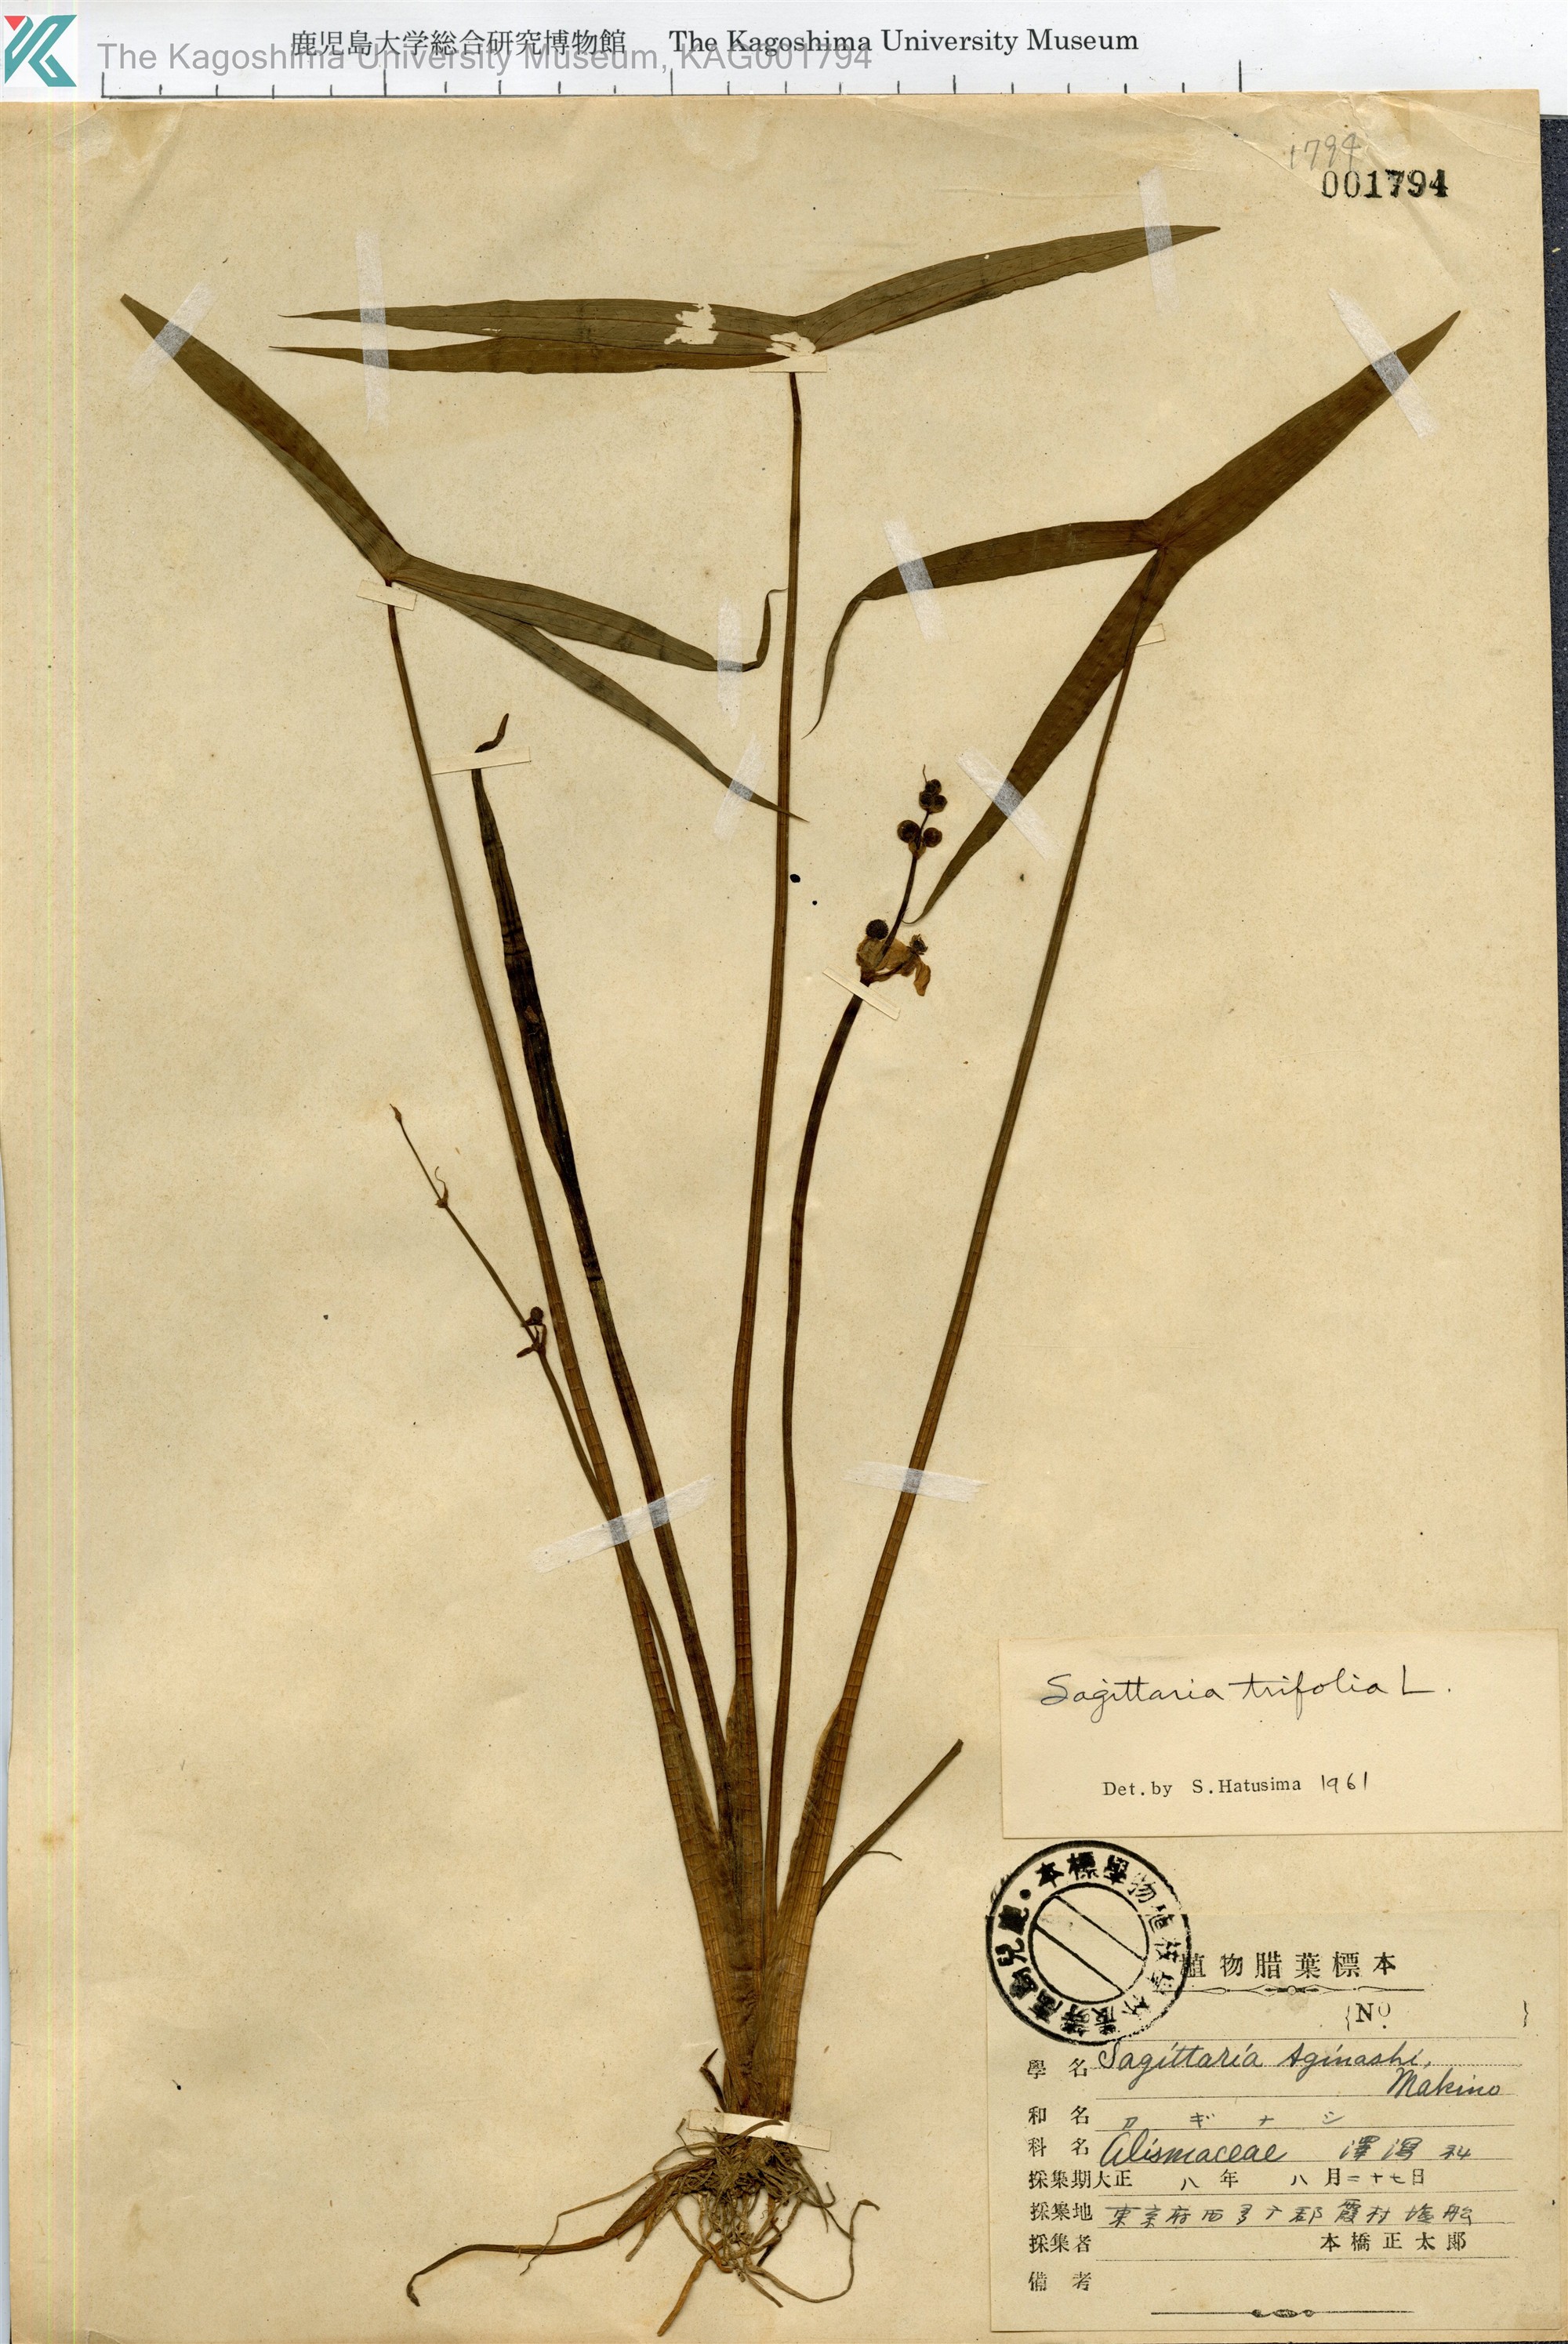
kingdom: Plantae
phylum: Tracheophyta
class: Liliopsida
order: Alismatales
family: Alismataceae
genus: Sagittaria
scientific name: Sagittaria trifolia
